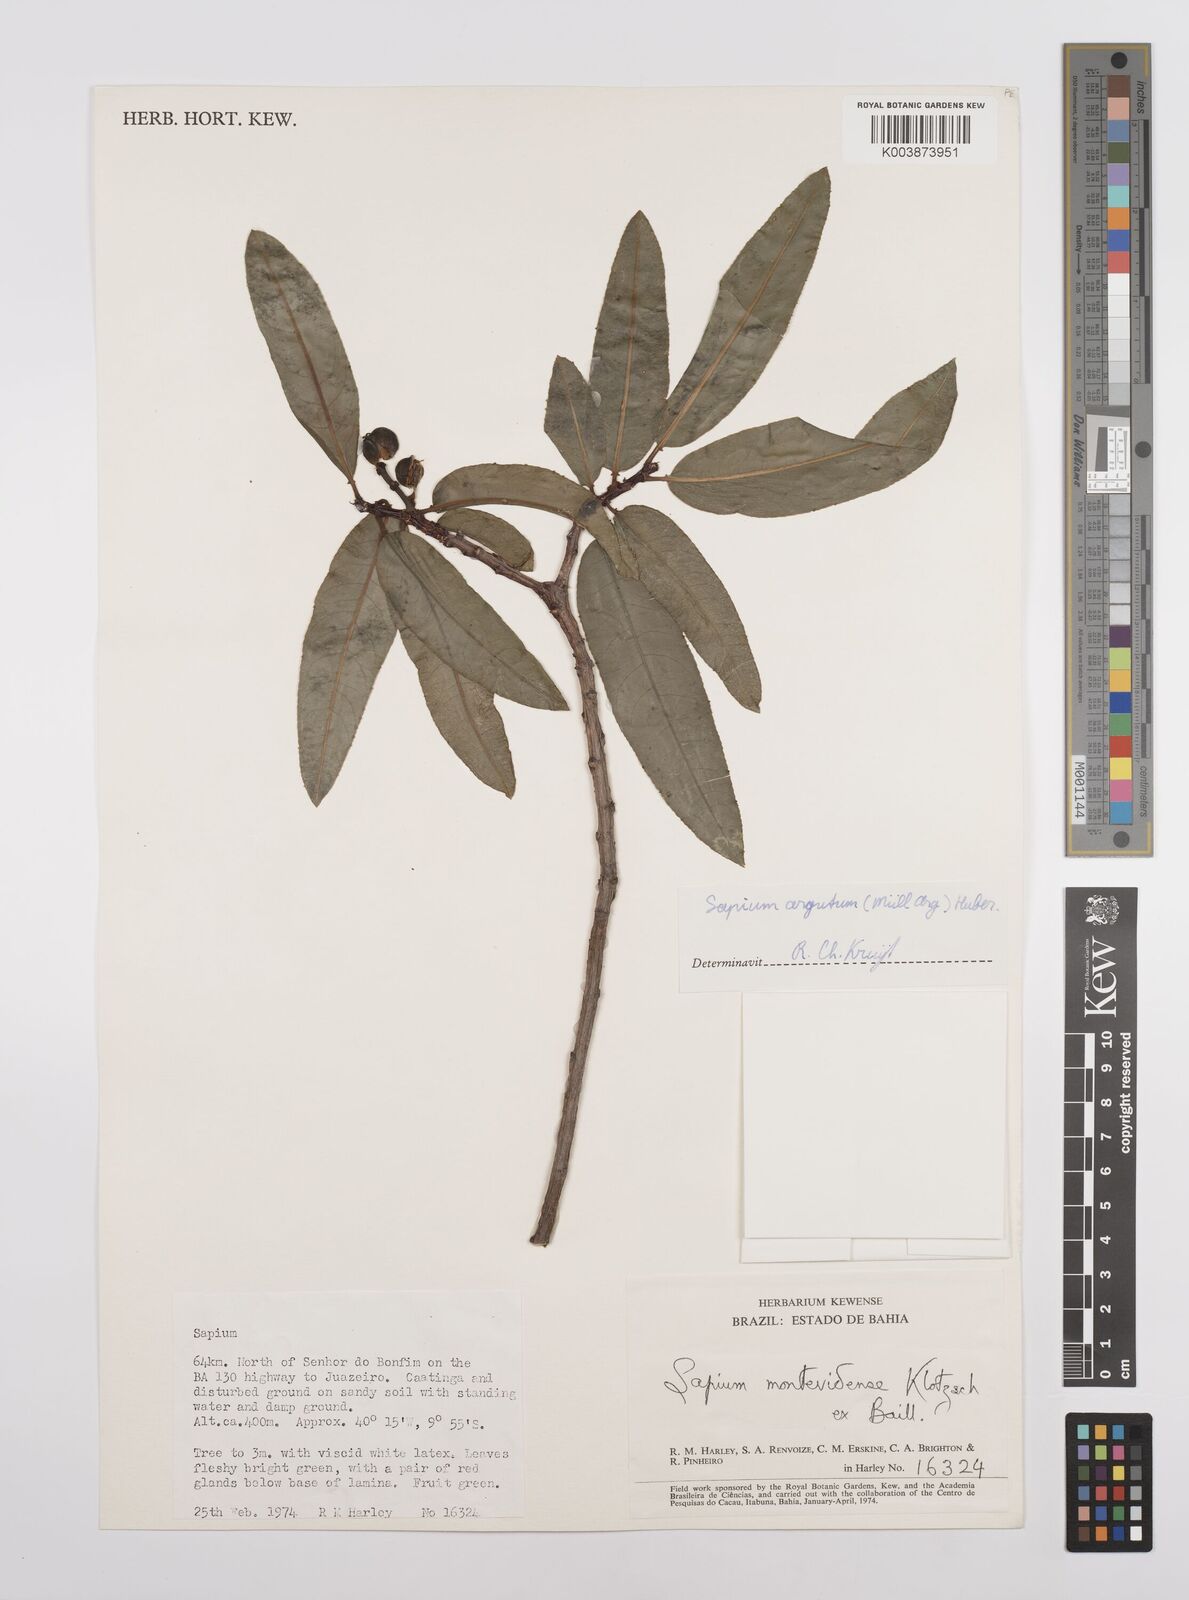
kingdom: Plantae
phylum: Tracheophyta
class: Magnoliopsida
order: Malpighiales
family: Euphorbiaceae
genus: Sapium
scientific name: Sapium glandulosum
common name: Milktree
